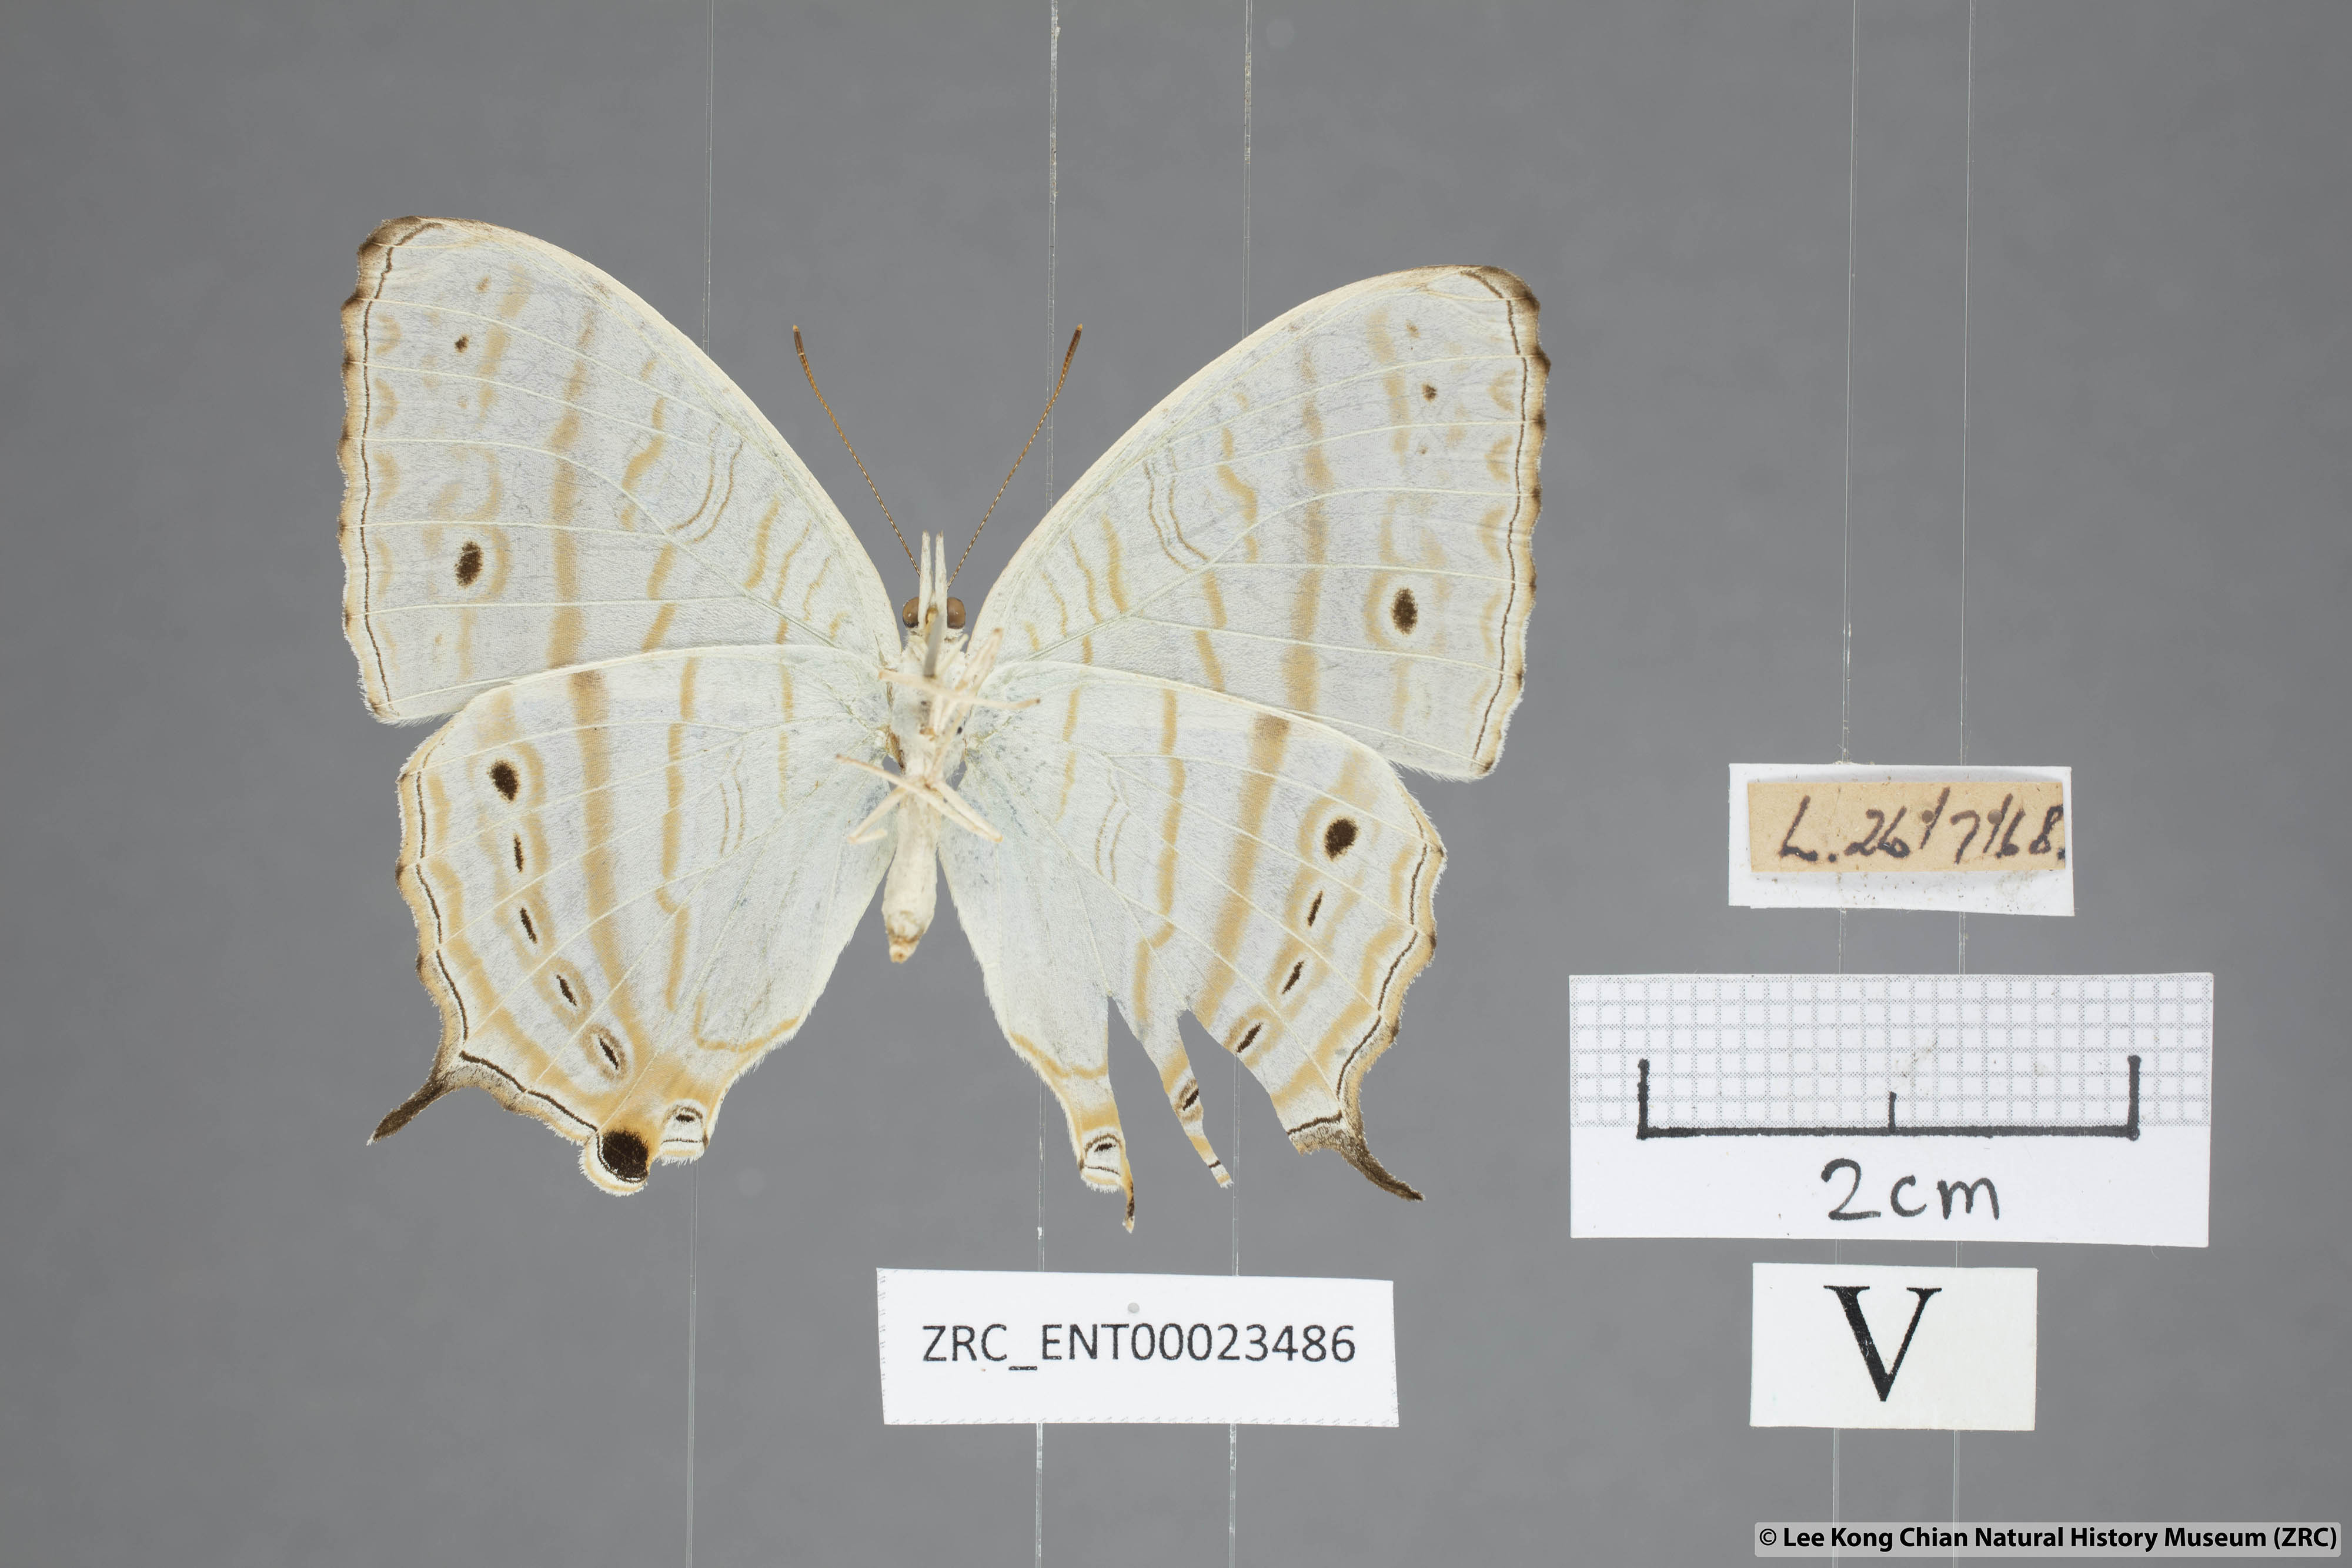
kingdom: Animalia
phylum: Arthropoda
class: Insecta
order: Lepidoptera
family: Nymphalidae
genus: Cyrestis
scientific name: Cyrestis cocles
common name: Marbled map
